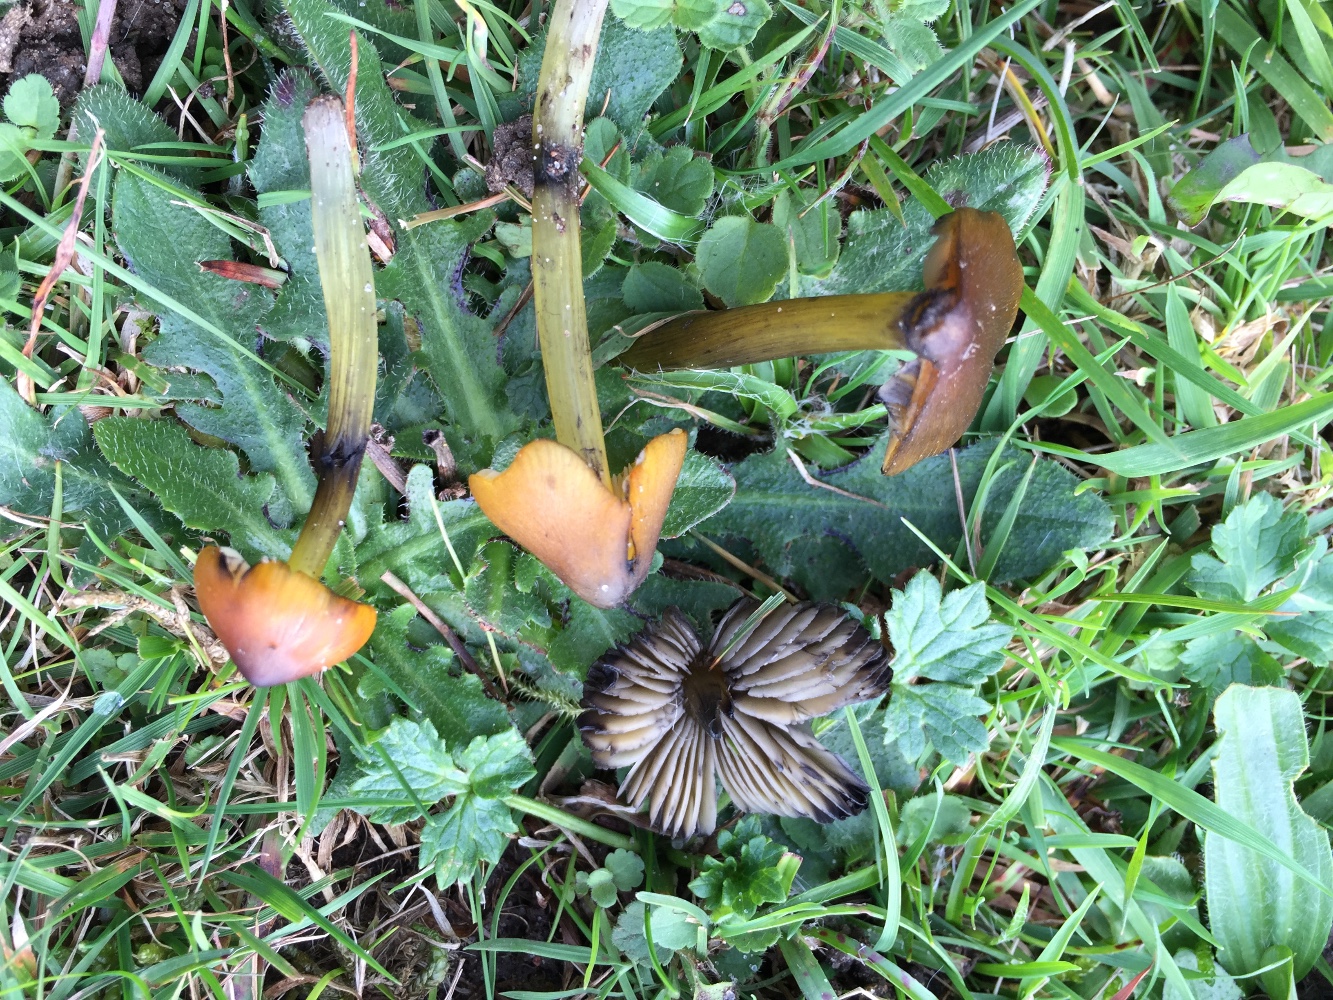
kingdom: Fungi
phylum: Basidiomycota
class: Agaricomycetes
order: Agaricales
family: Hygrophoraceae
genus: Hygrocybe
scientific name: Hygrocybe conica
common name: kegle-vokshat
